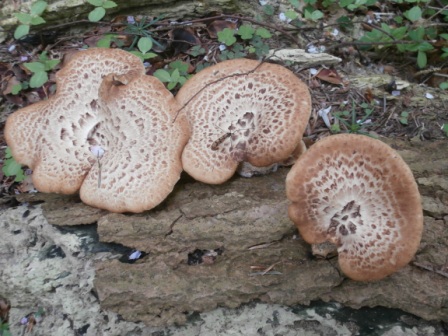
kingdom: Fungi
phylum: Basidiomycota
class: Agaricomycetes
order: Polyporales
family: Polyporaceae
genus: Cerioporus
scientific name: Cerioporus squamosus
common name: skællet stilkporesvamp
